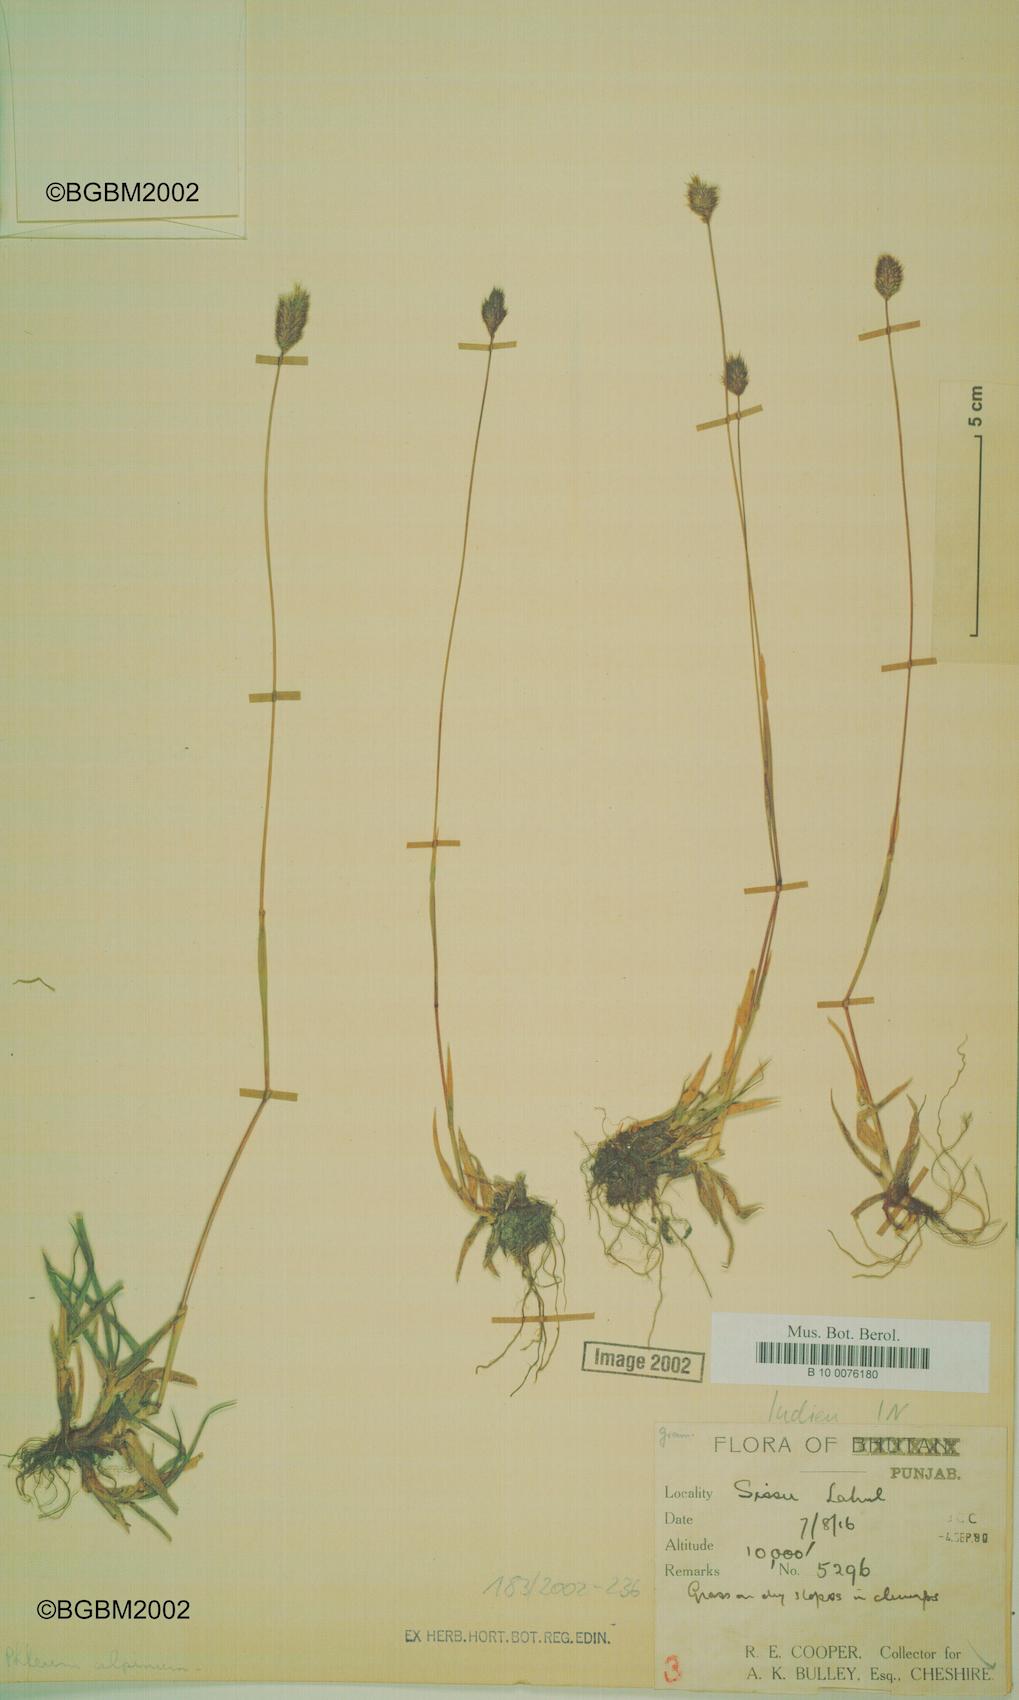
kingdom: Plantae
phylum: Tracheophyta
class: Liliopsida
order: Poales
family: Poaceae
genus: Phleum
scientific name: Phleum alpinum
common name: Alpine cat's-tail
